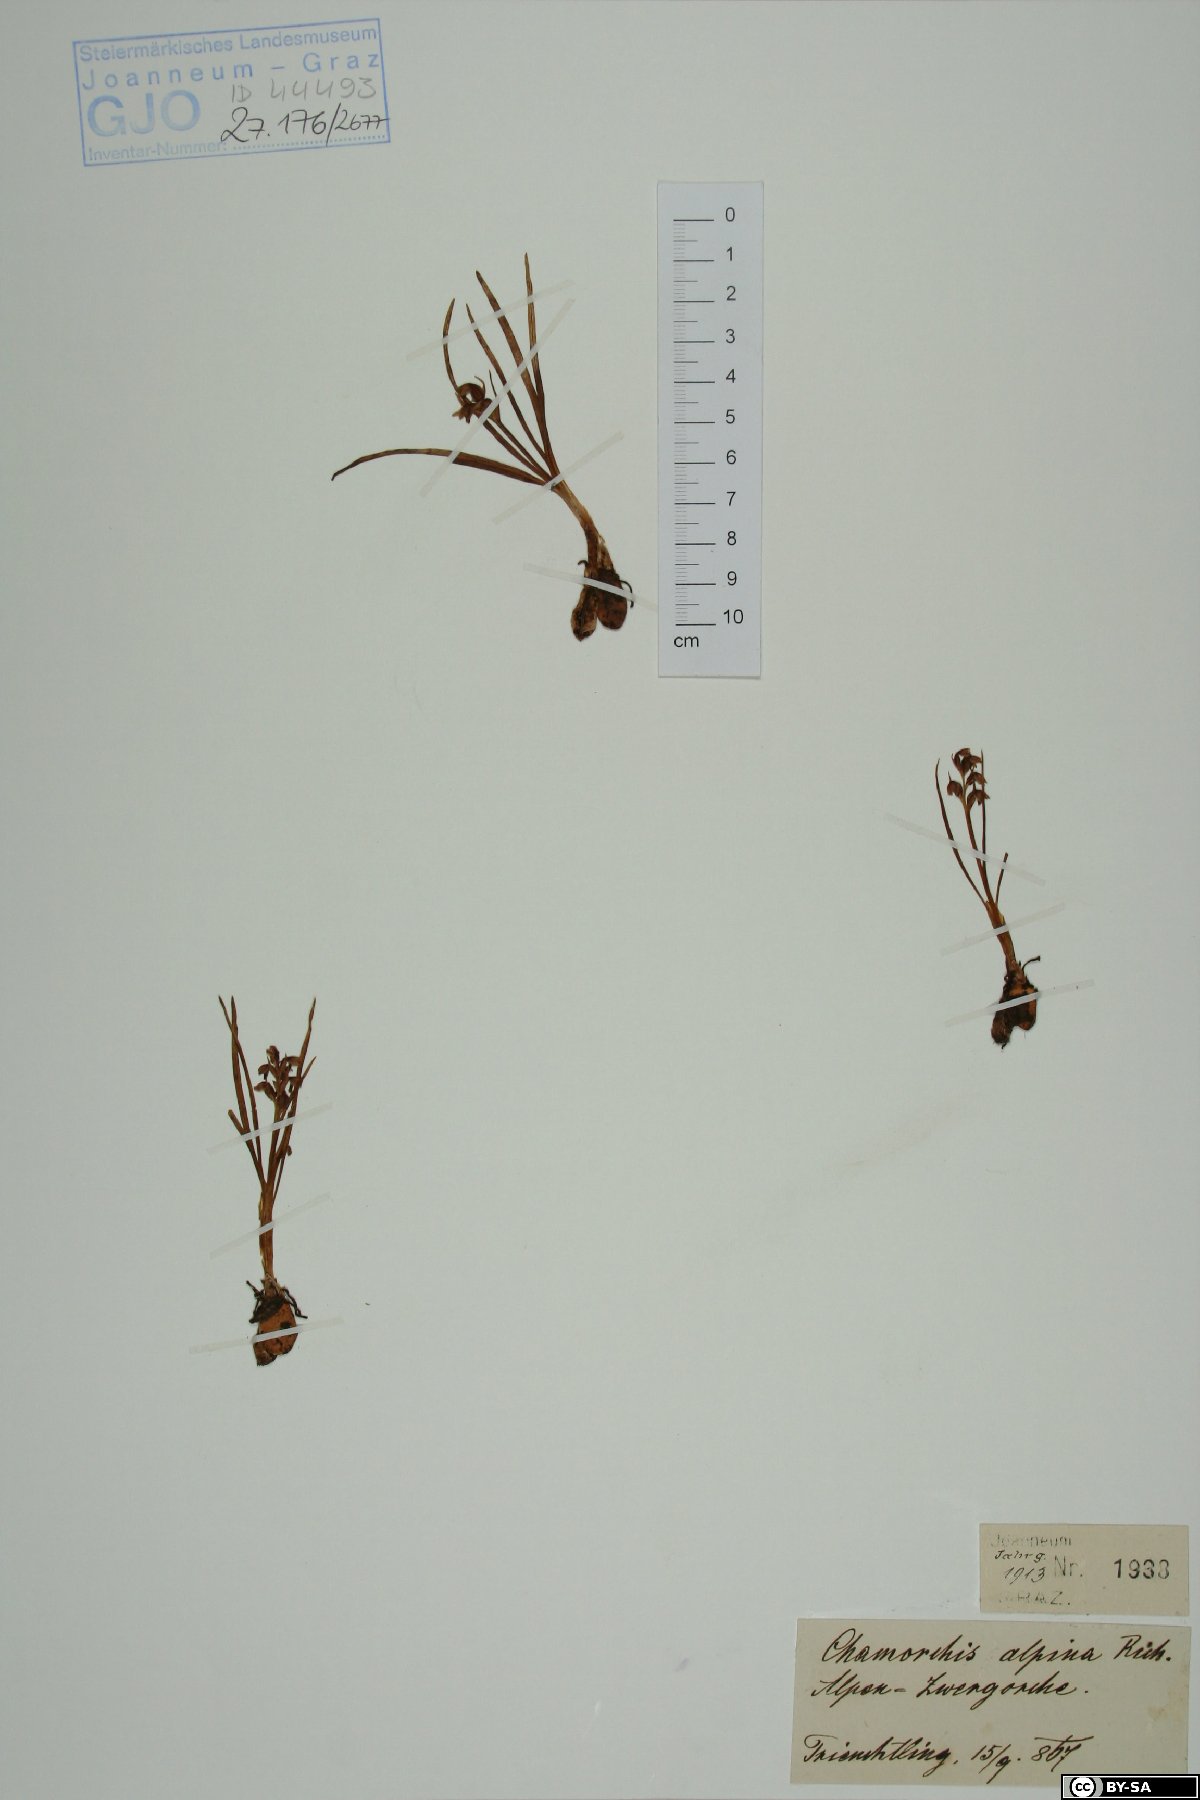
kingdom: Plantae
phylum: Tracheophyta
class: Liliopsida
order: Asparagales
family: Orchidaceae
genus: Chamorchis
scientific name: Chamorchis alpina
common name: Alpine chamorchis
